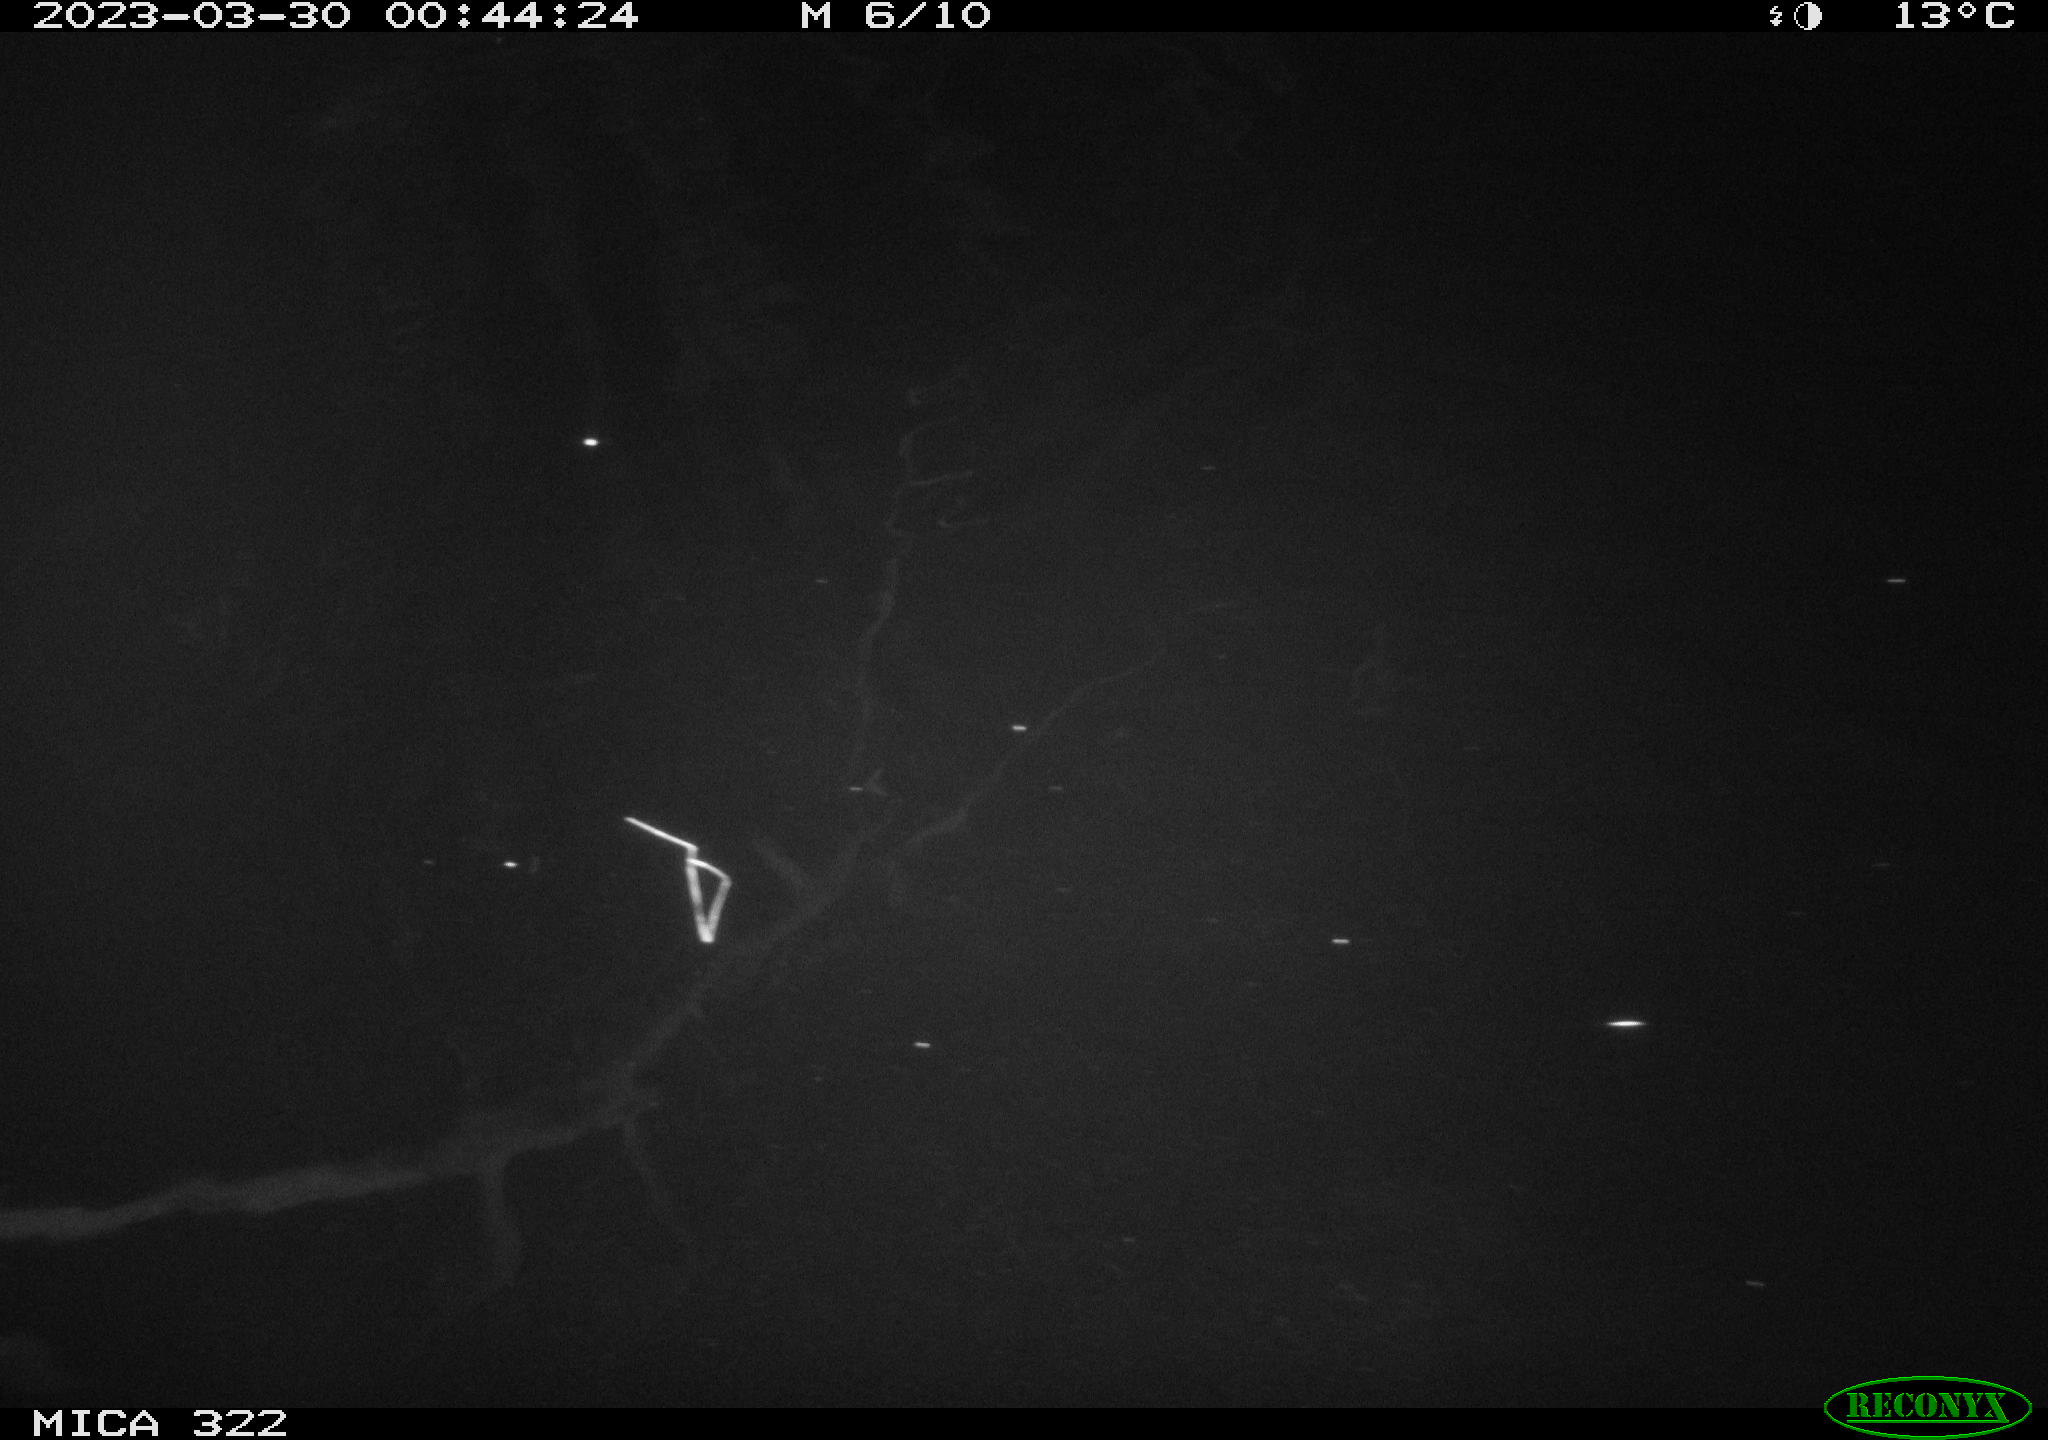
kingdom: Animalia
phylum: Chordata
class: Aves
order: Anseriformes
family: Anatidae
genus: Anas
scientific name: Anas
